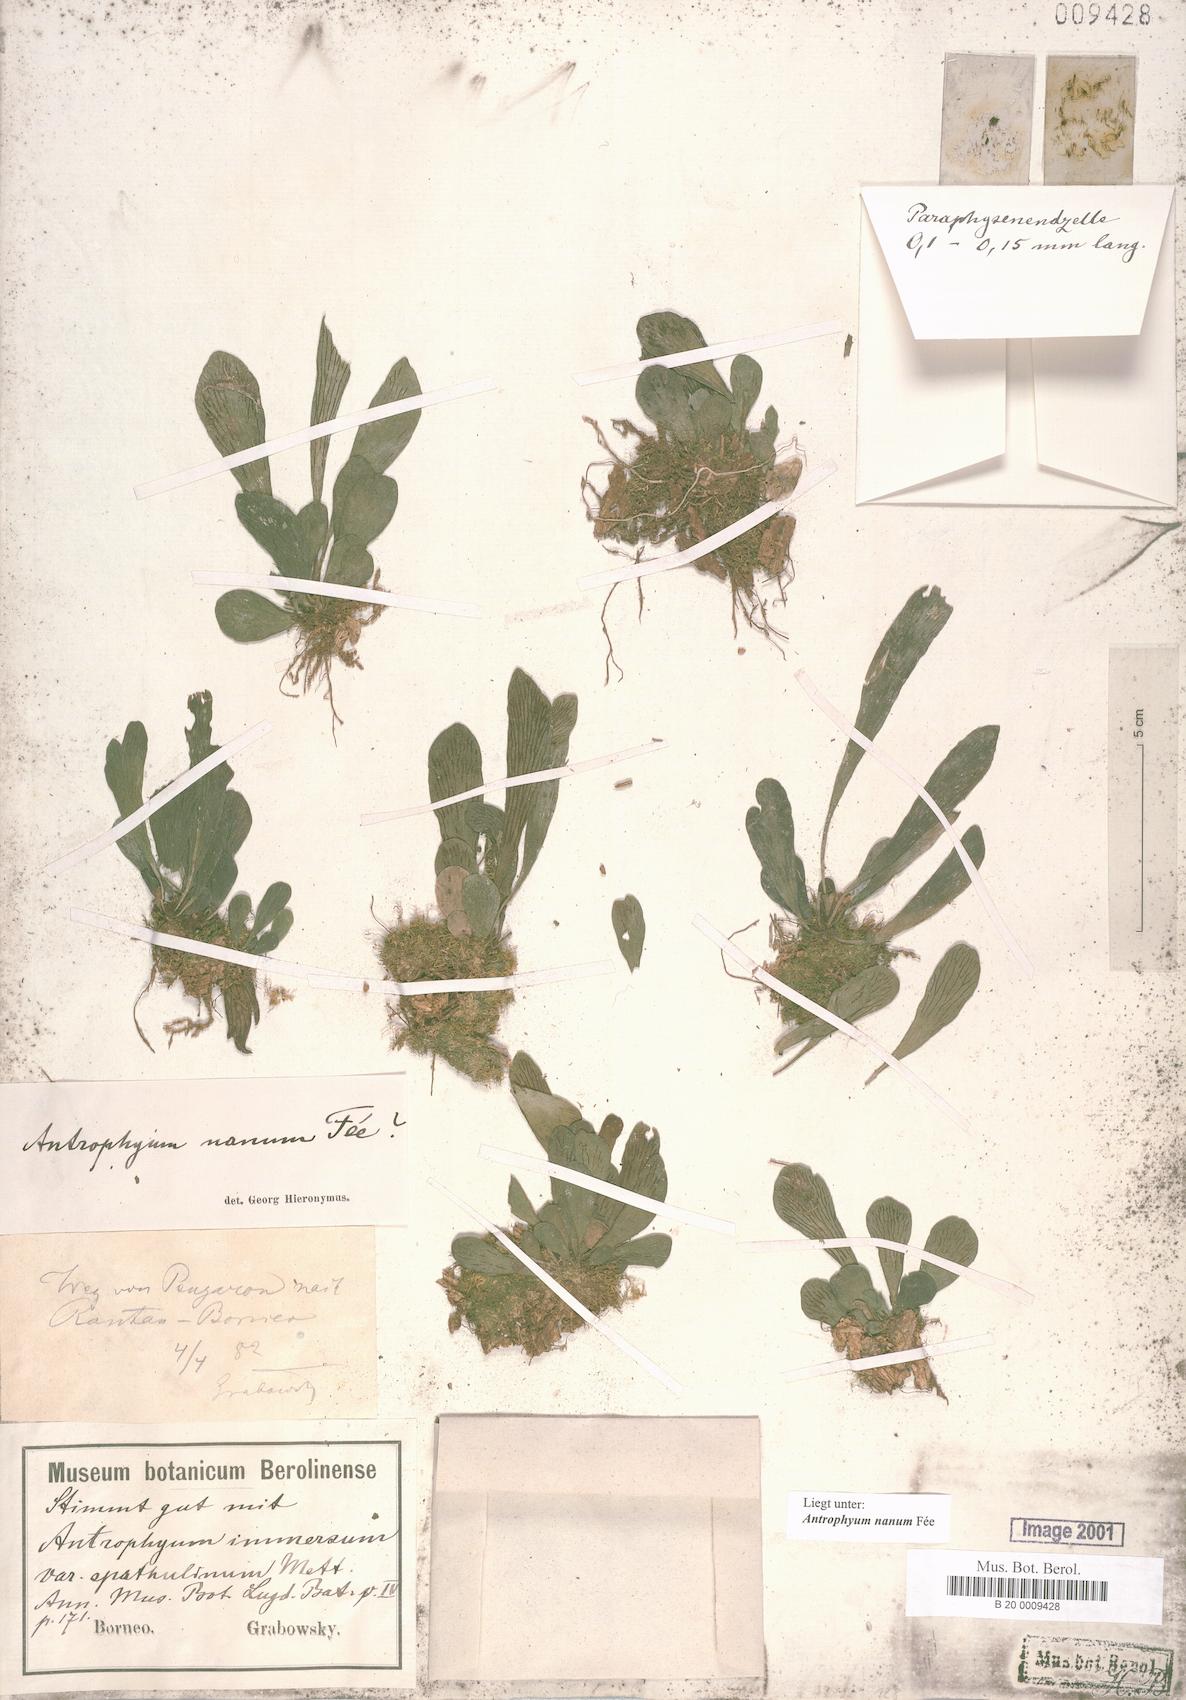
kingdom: Plantae
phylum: Tracheophyta
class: Polypodiopsida
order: Polypodiales
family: Pteridaceae
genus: Antrophyum
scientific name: Antrophyum callifolium
